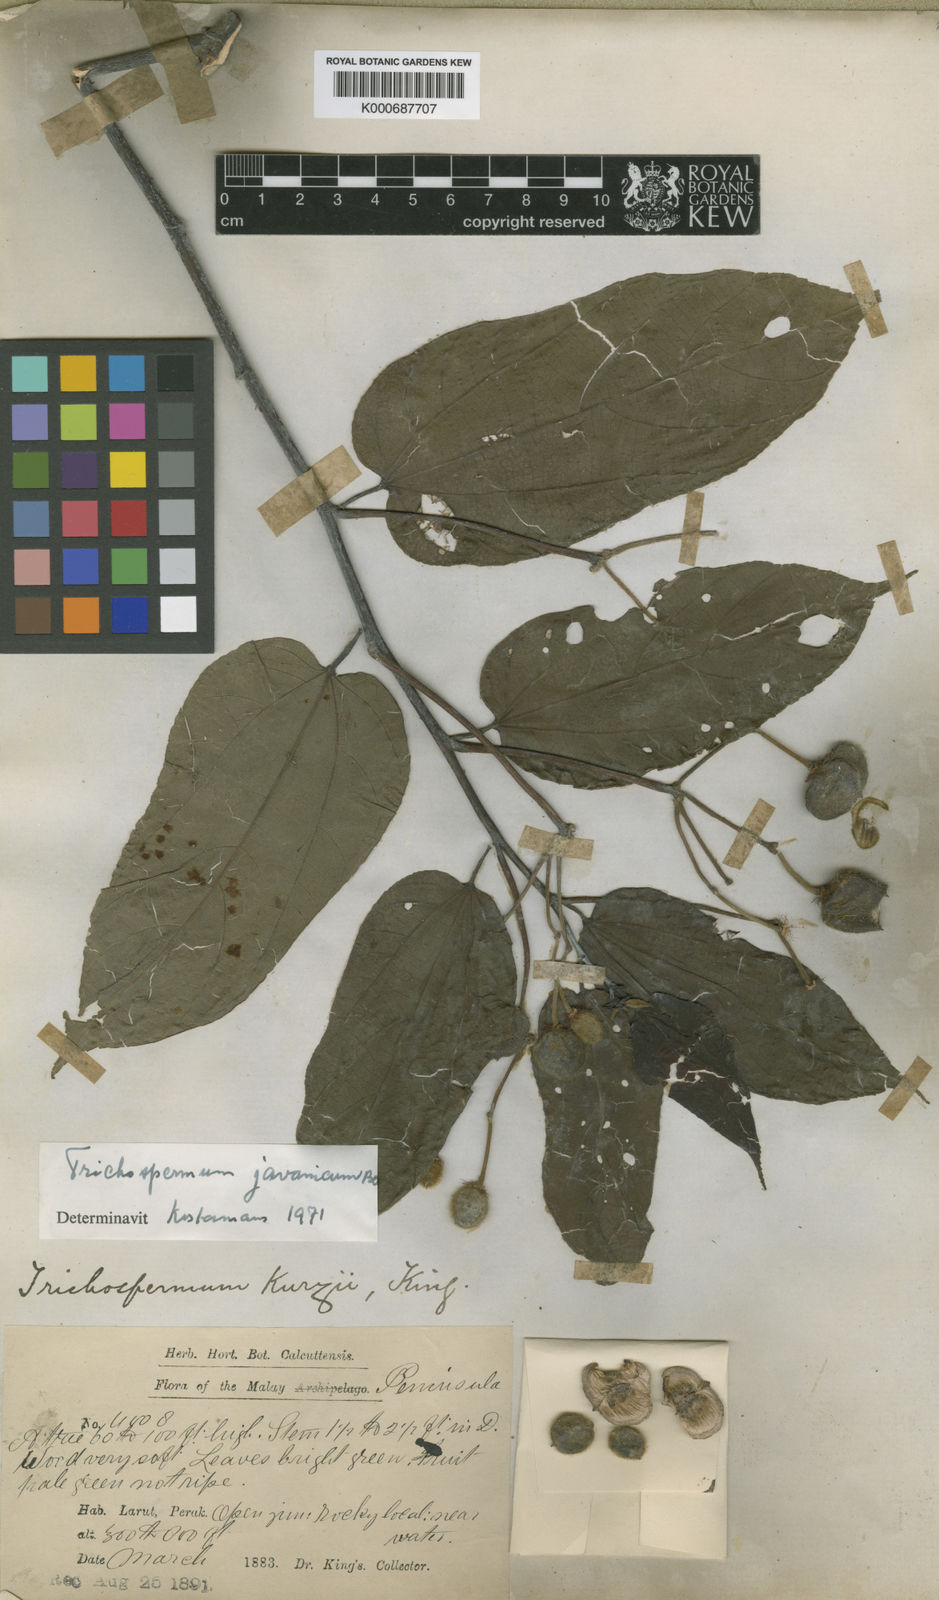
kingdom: Plantae
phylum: Tracheophyta
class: Magnoliopsida
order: Malvales
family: Malvaceae
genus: Trichospermum
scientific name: Trichospermum javanicum
